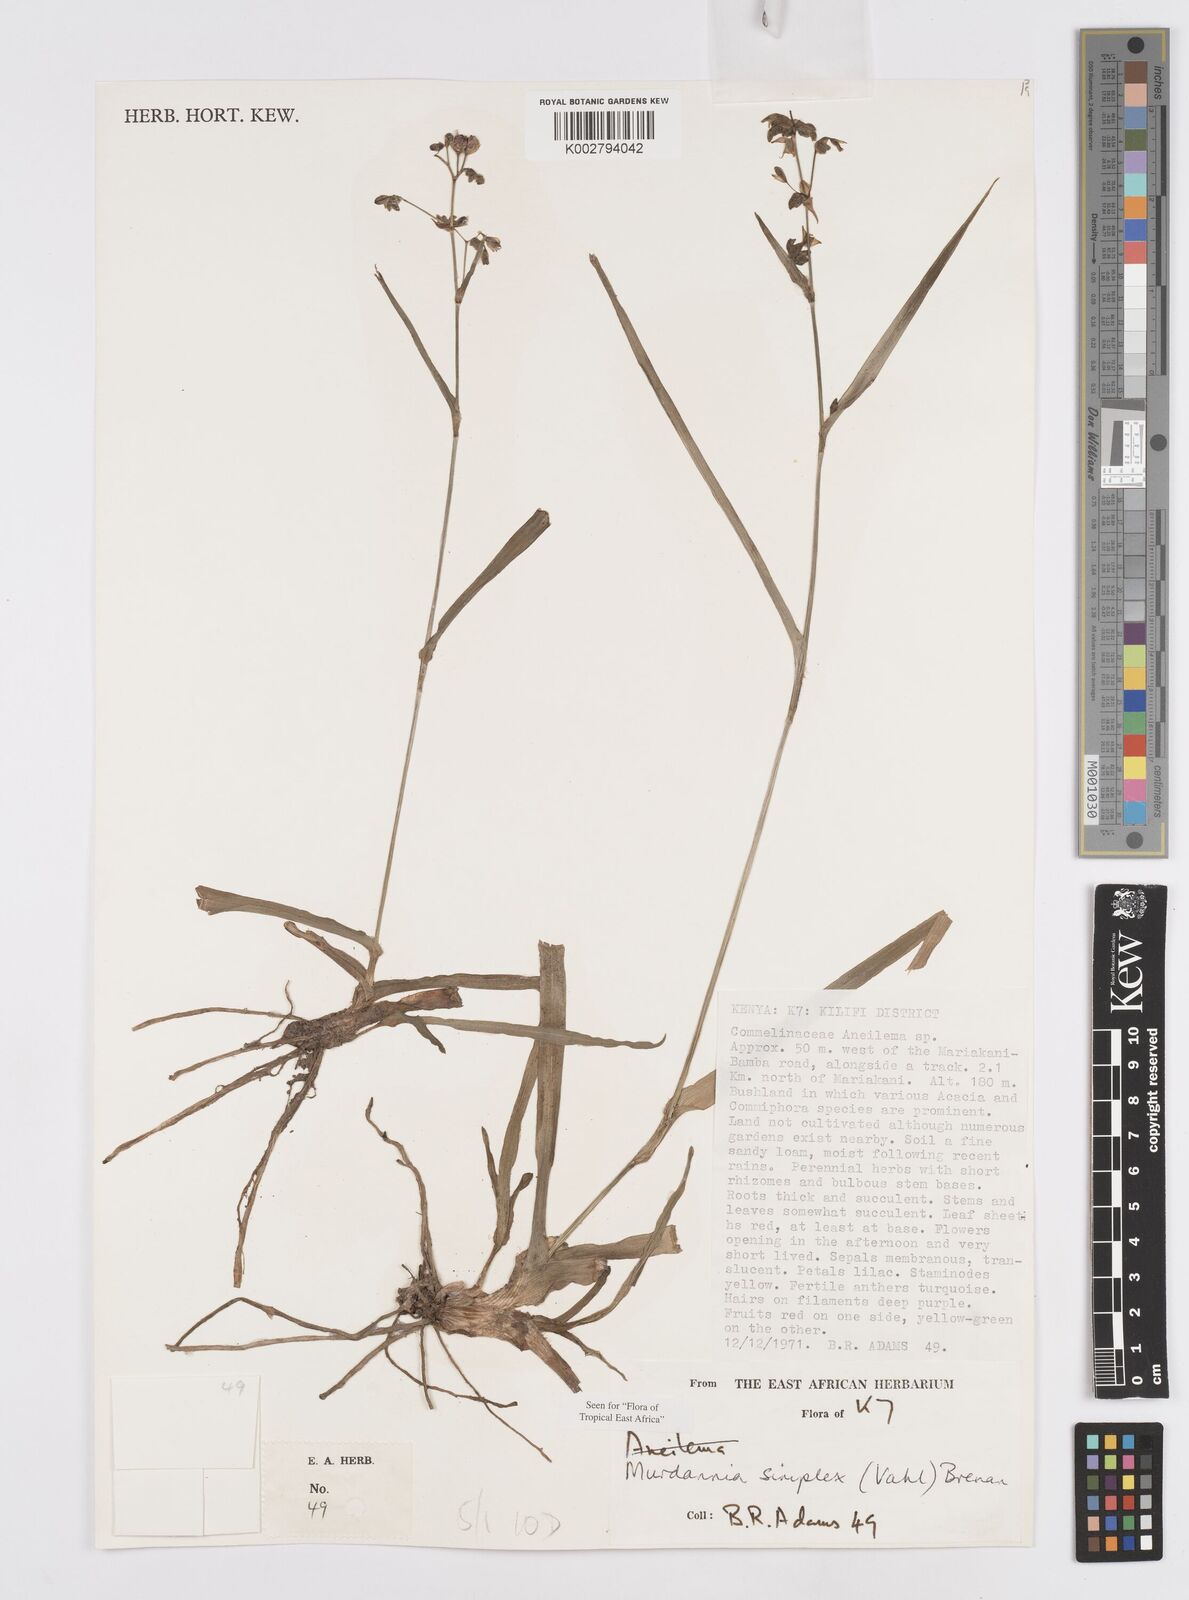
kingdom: Plantae
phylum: Tracheophyta
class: Liliopsida
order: Commelinales
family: Commelinaceae
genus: Murdannia
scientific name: Murdannia simplex
